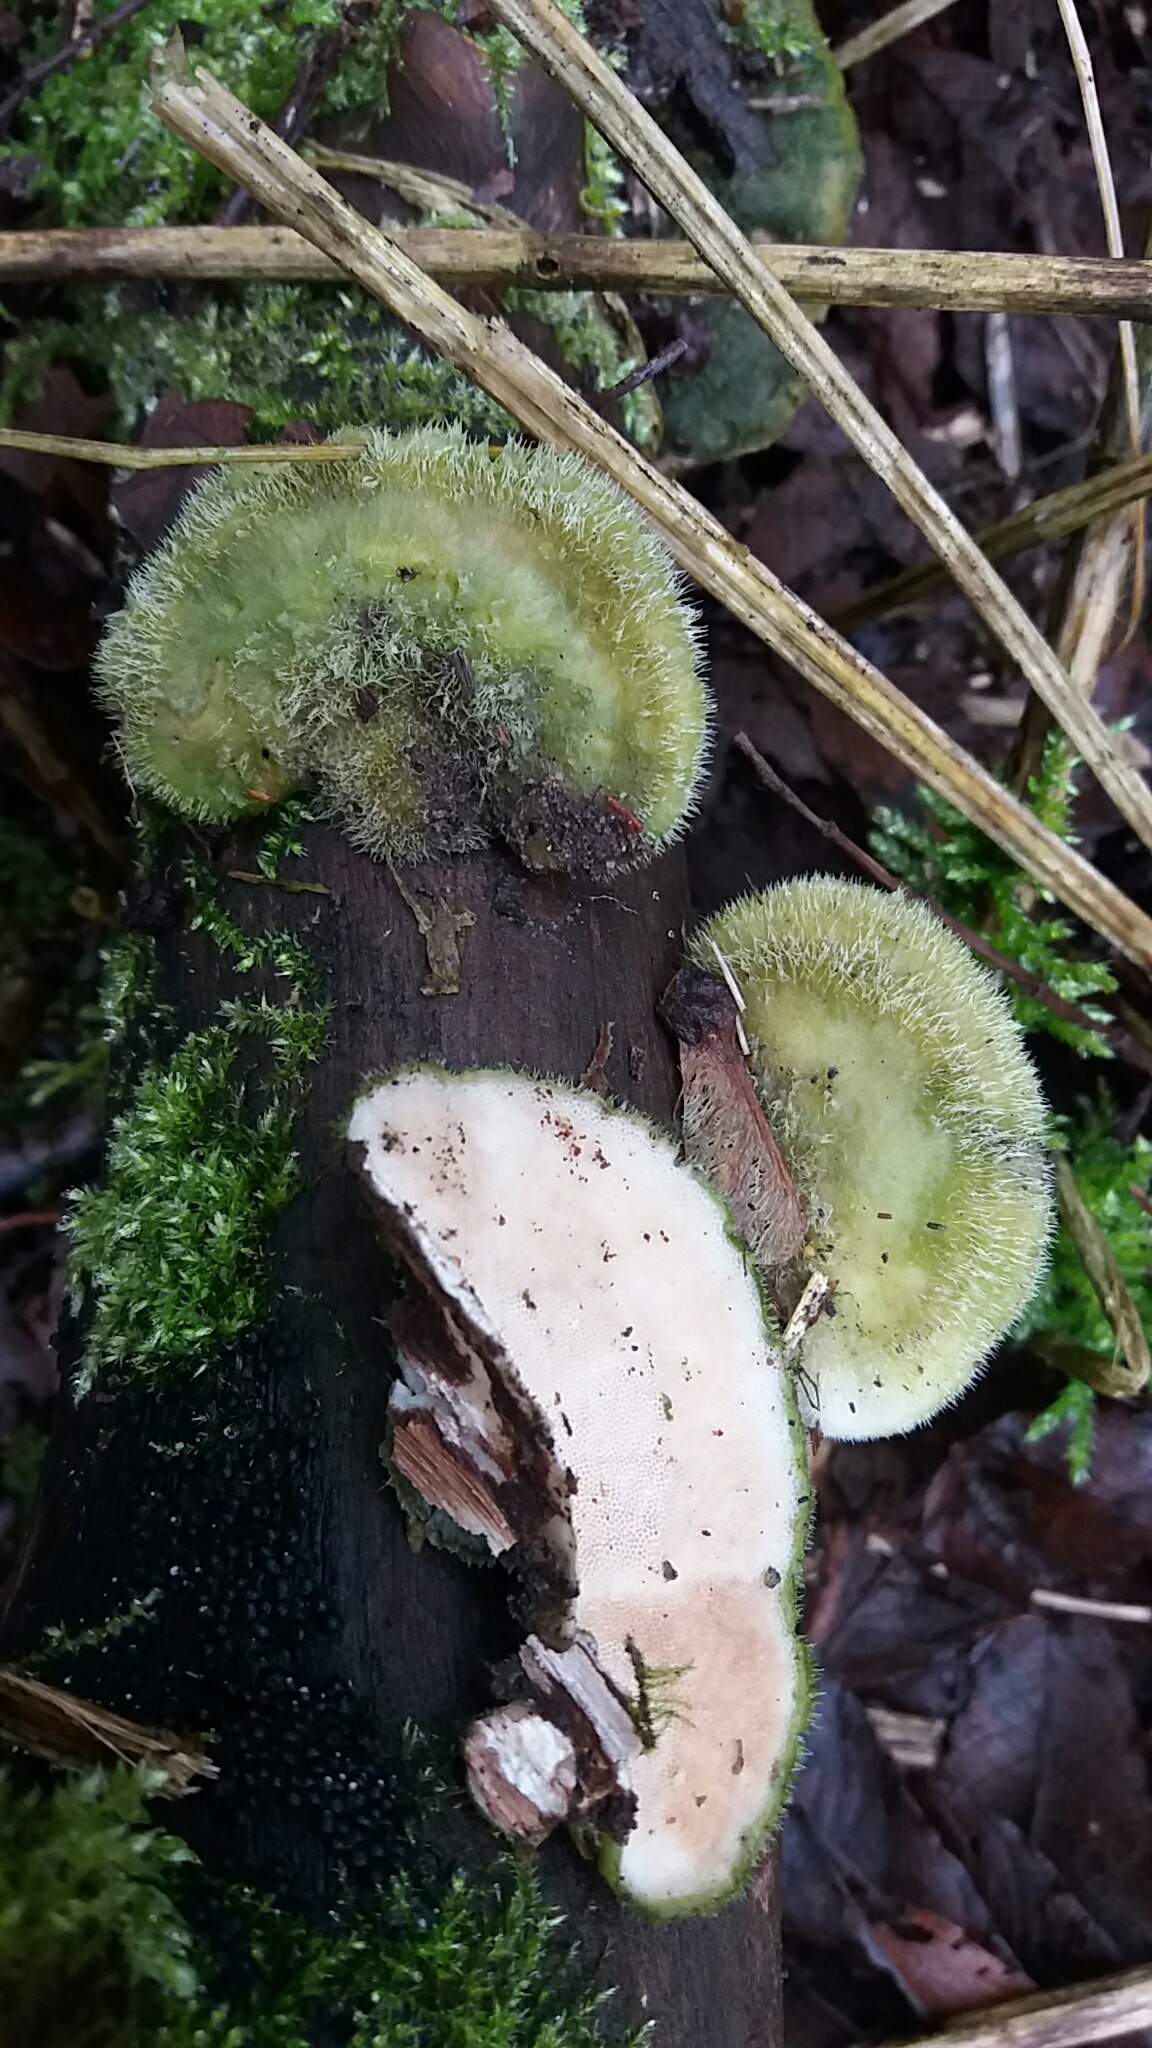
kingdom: Fungi
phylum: Basidiomycota
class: Agaricomycetes
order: Polyporales
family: Polyporaceae
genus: Trametes
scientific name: Trametes hirsuta
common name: håret læderporesvamp
